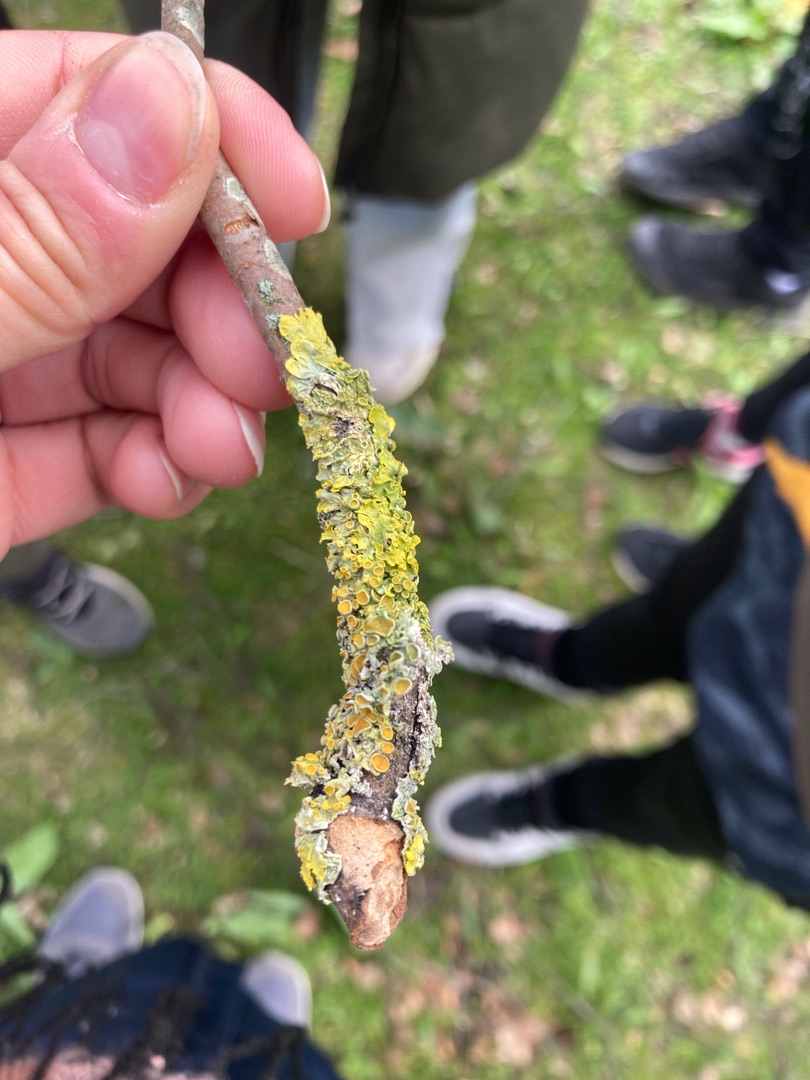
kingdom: Fungi
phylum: Ascomycota
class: Lecanoromycetes
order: Teloschistales
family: Teloschistaceae
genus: Xanthoria
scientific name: Xanthoria parietina
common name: Almindelig væggelav
